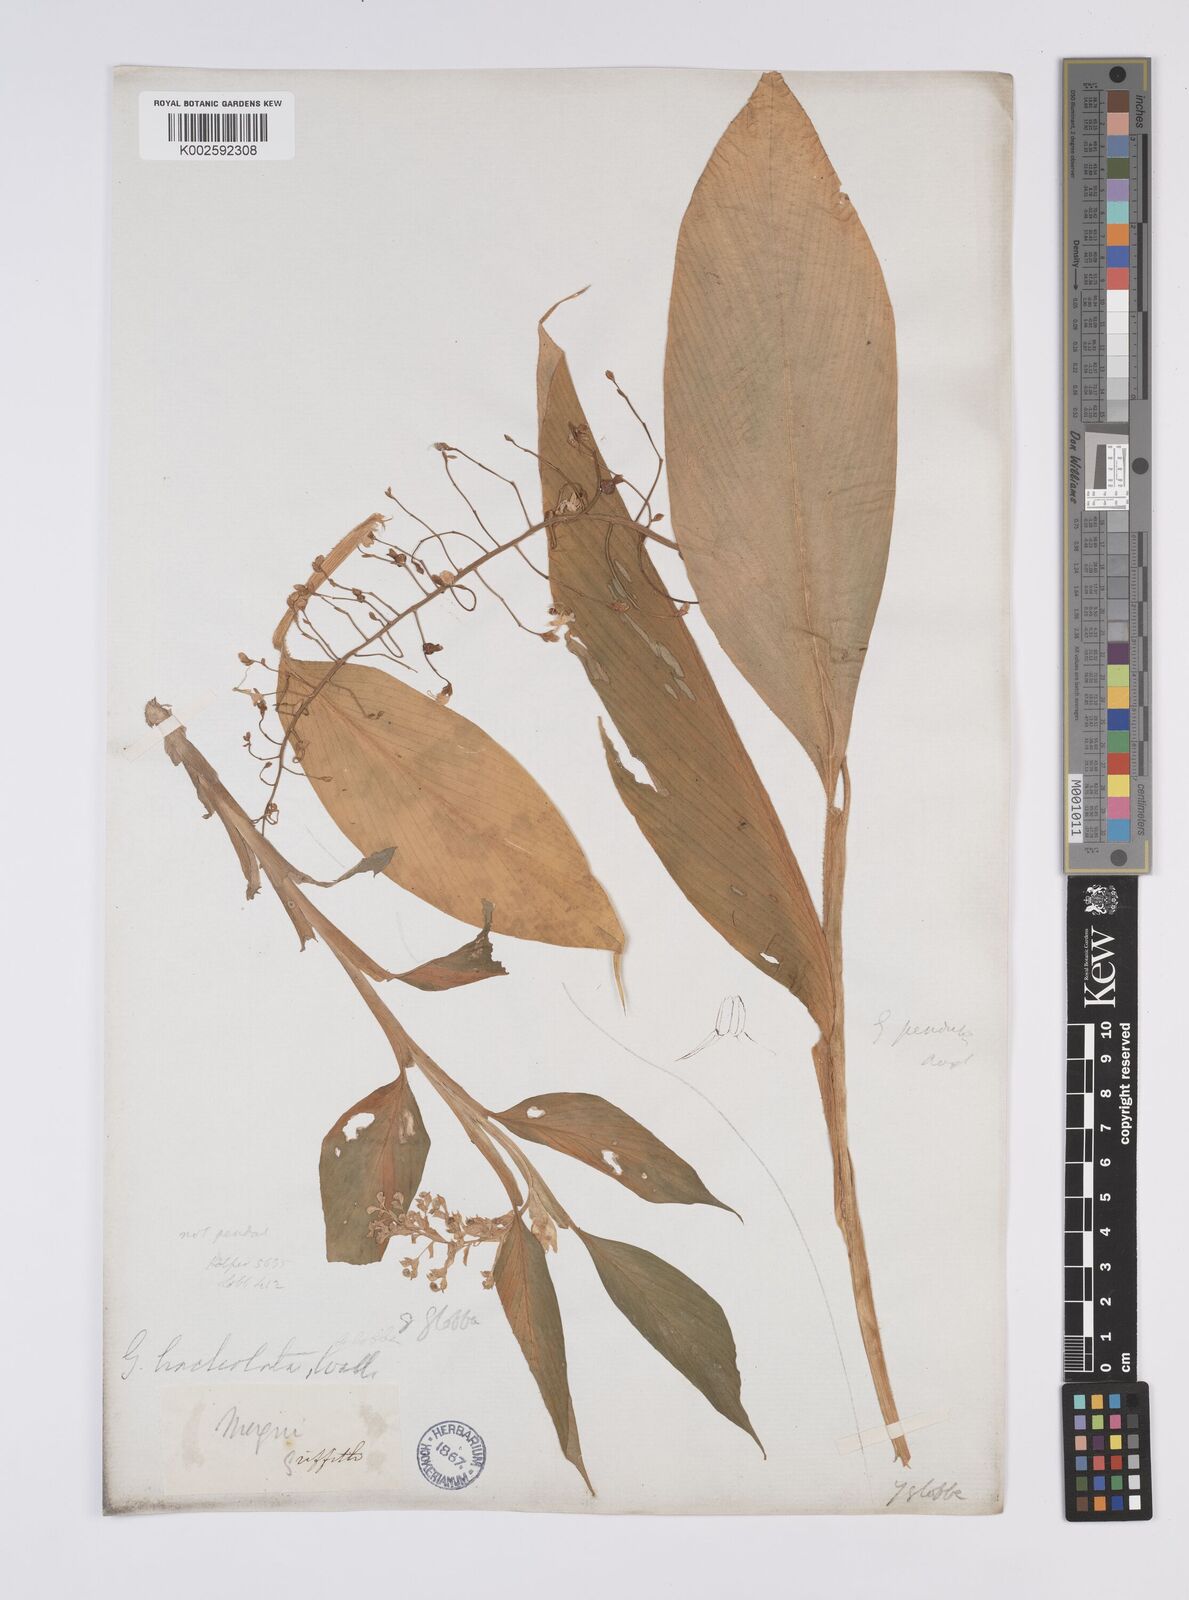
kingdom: Plantae
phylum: Tracheophyta
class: Liliopsida
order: Zingiberales
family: Zingiberaceae
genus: Globba
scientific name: Globba pendula
